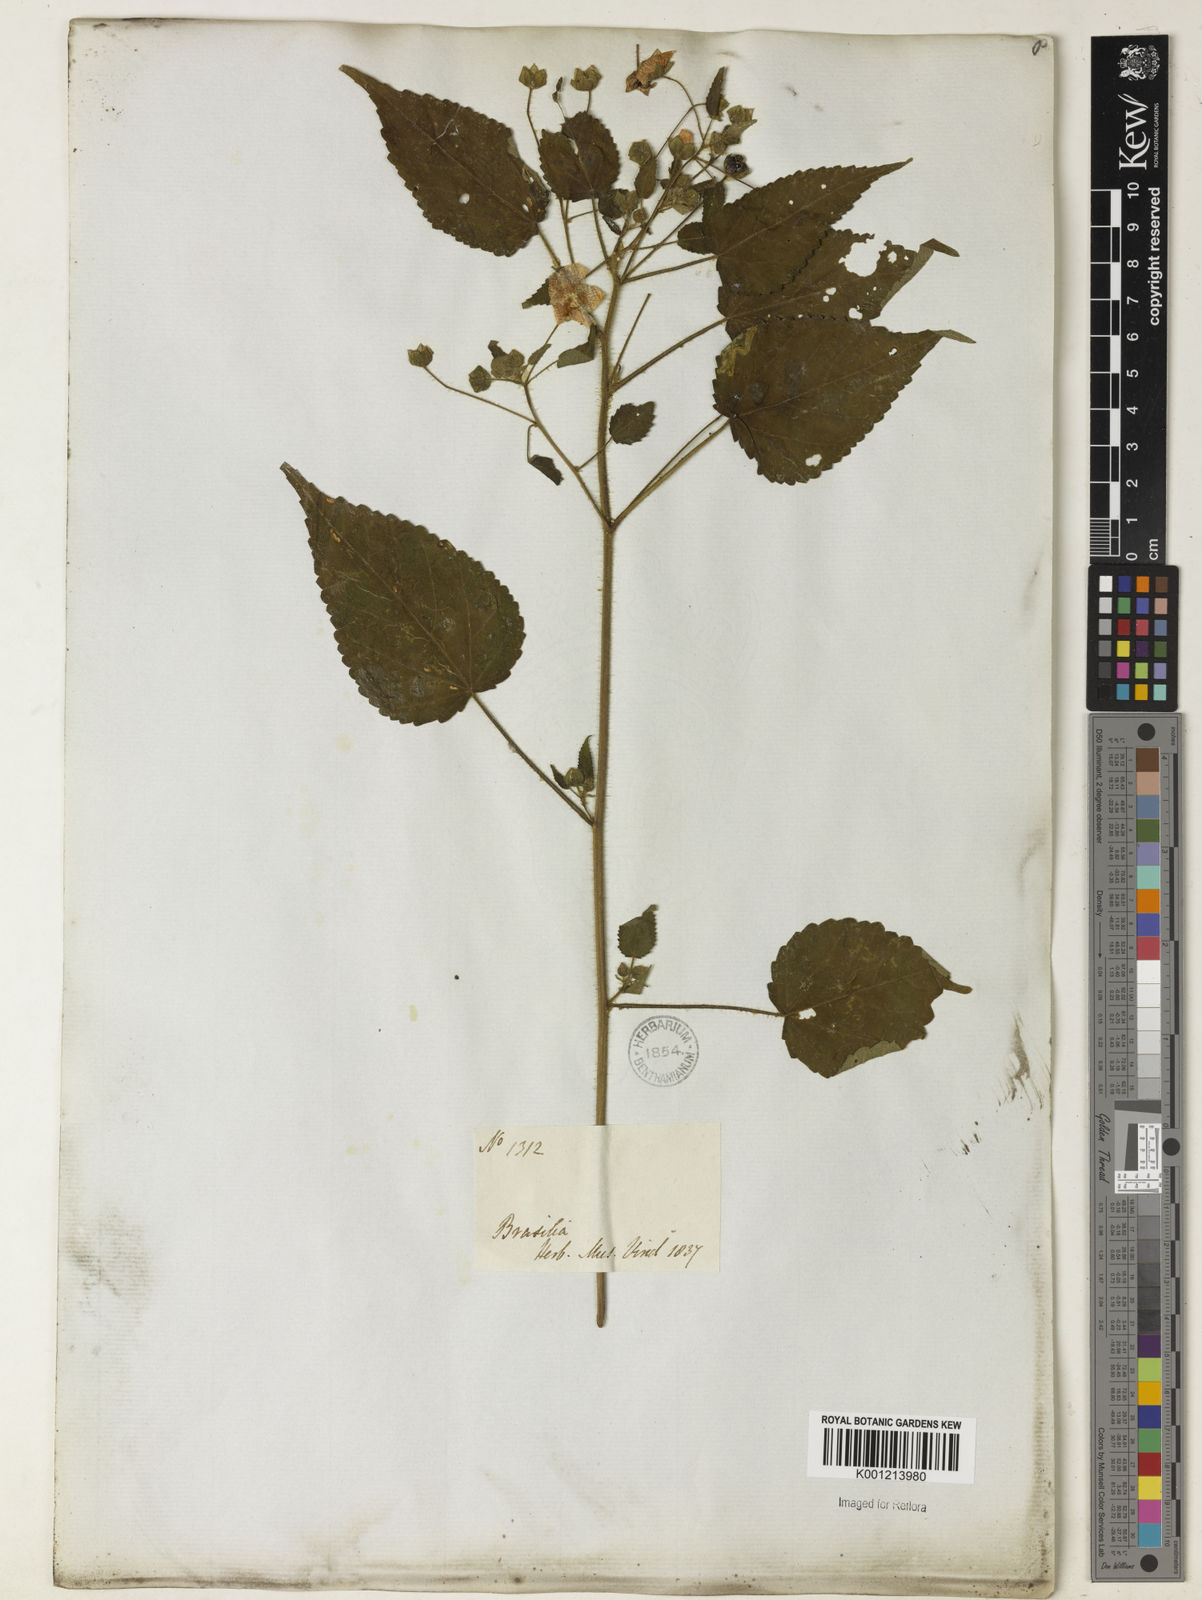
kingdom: Plantae
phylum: Tracheophyta
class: Magnoliopsida
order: Malvales
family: Malvaceae
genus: Sida
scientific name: Sida aurantiaca
